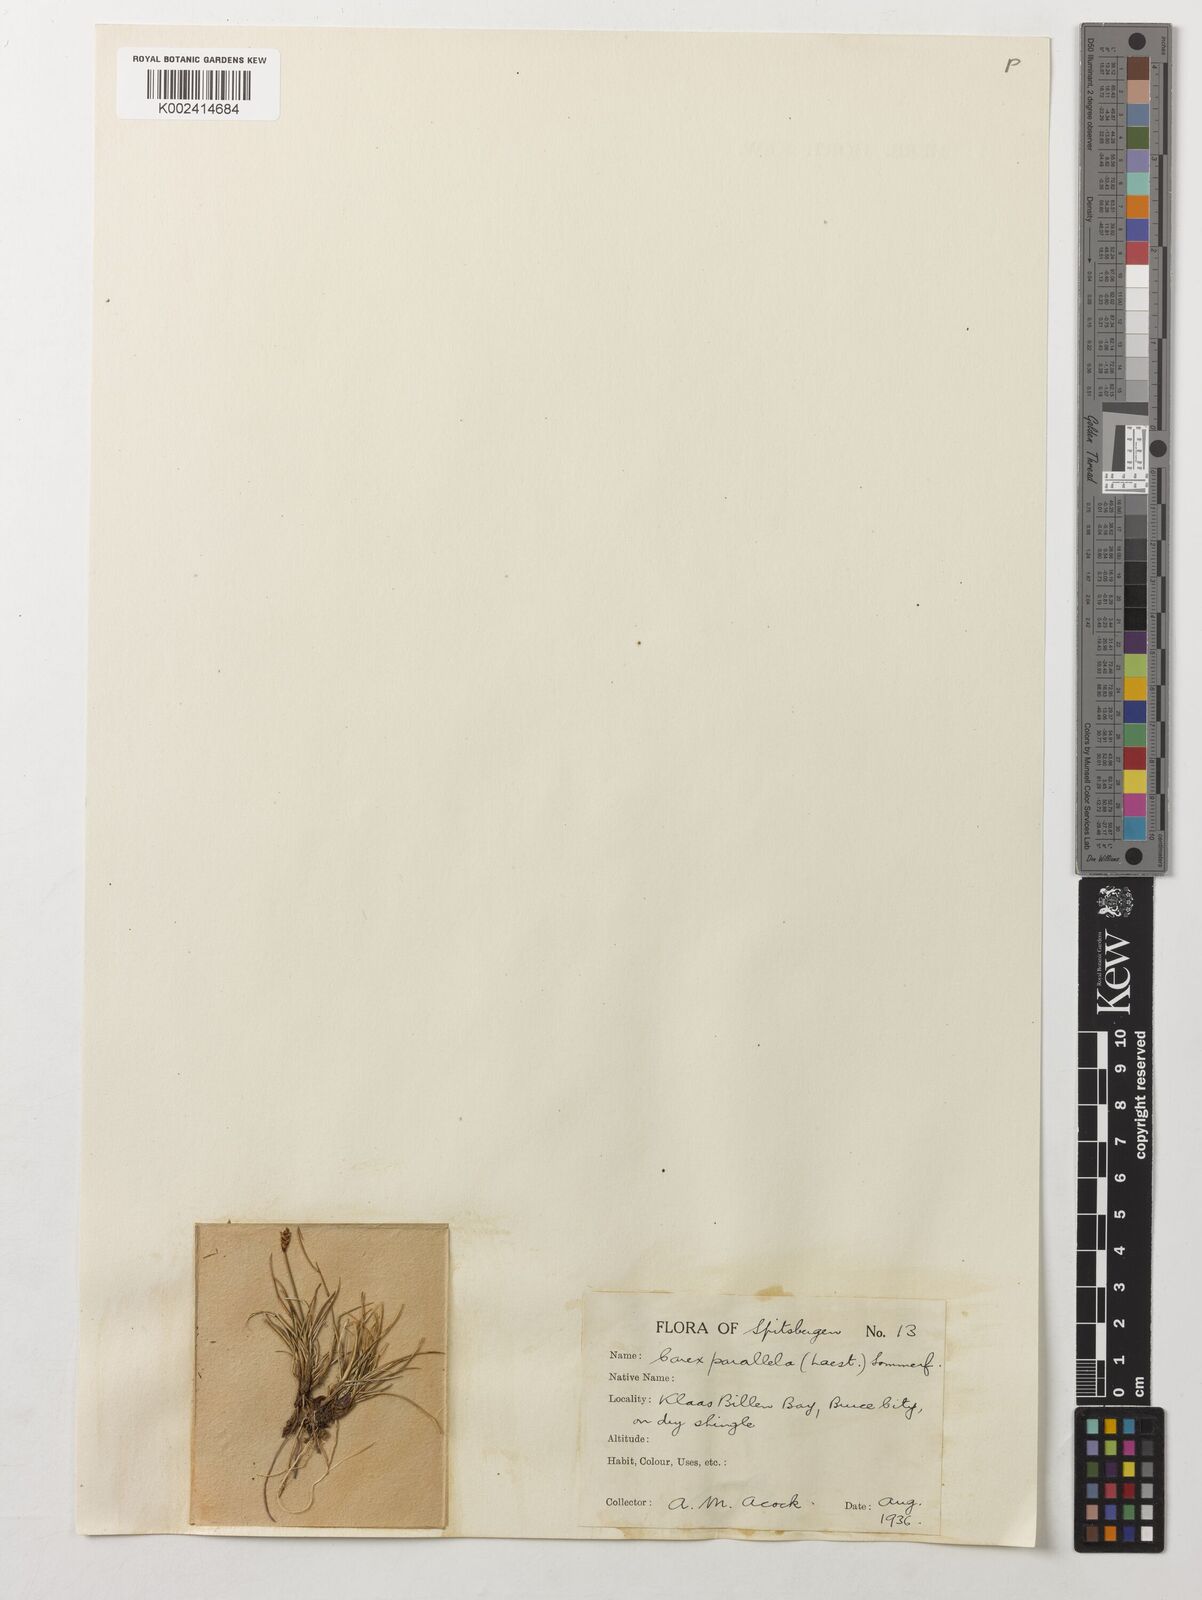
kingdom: Plantae
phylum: Tracheophyta
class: Liliopsida
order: Poales
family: Cyperaceae
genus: Carex
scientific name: Carex parallela
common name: Parallel sedge
